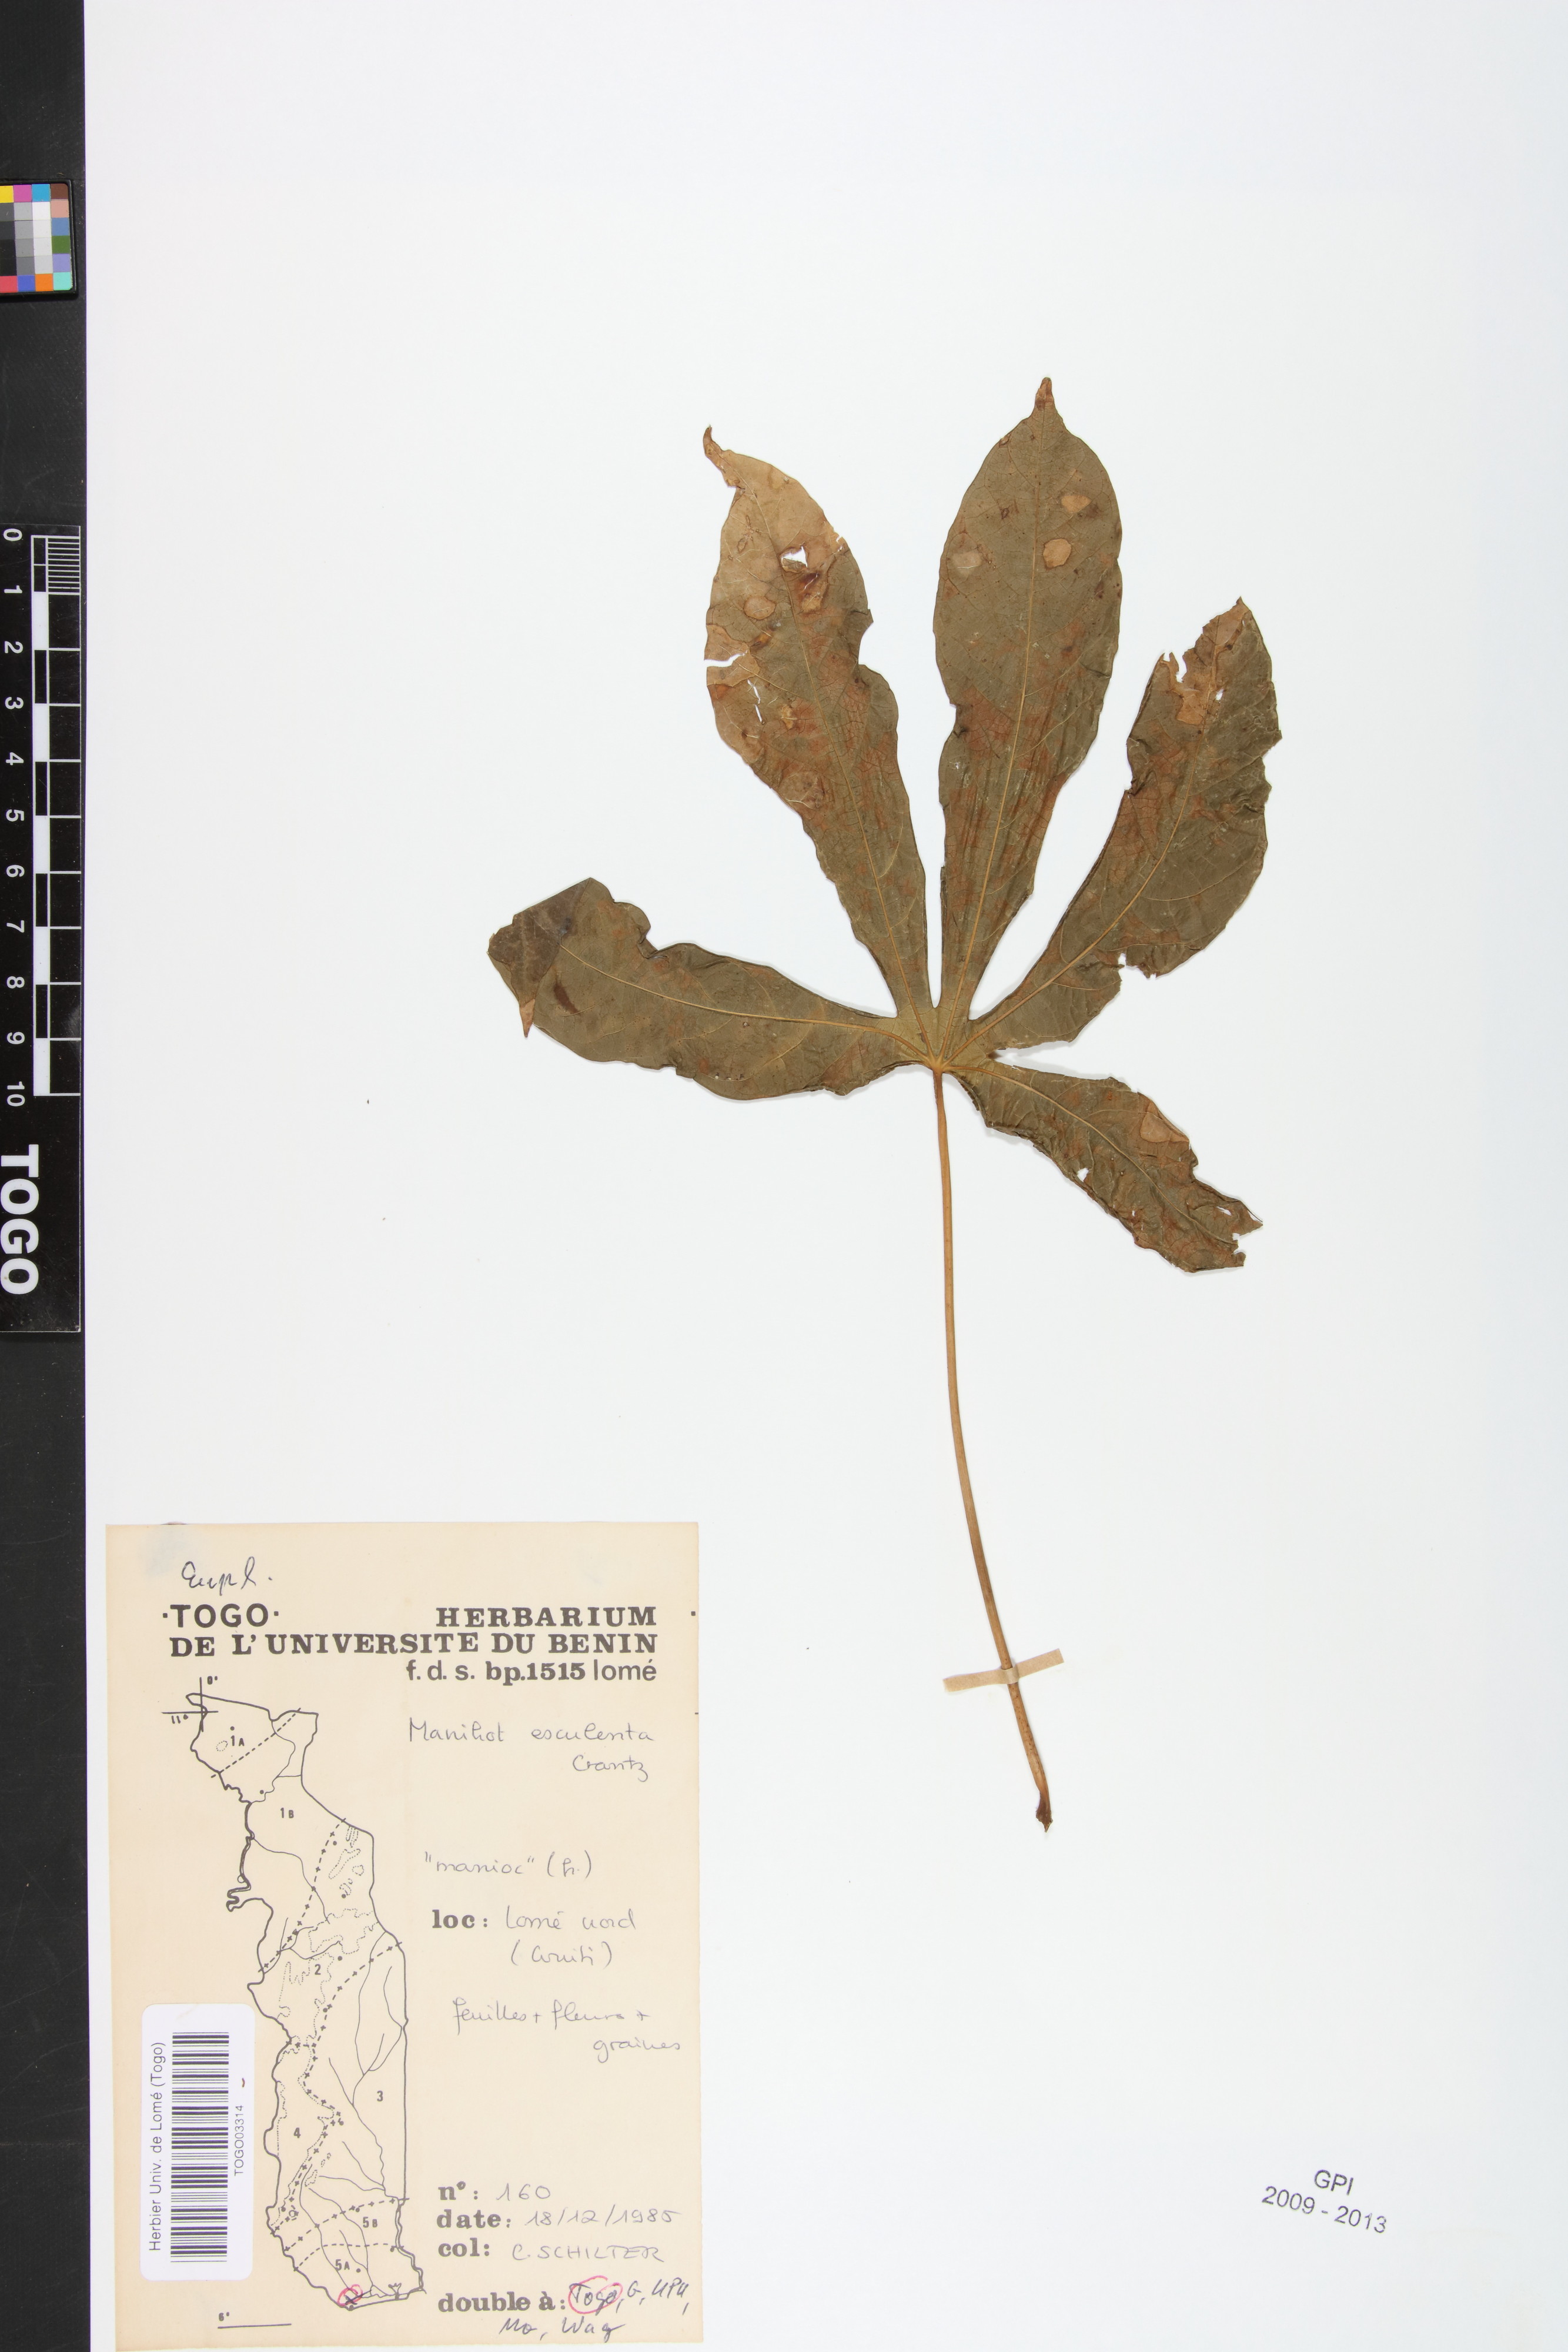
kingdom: Plantae
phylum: Tracheophyta
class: Magnoliopsida
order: Malpighiales
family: Euphorbiaceae
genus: Manihot
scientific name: Manihot esculenta
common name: Cassava
